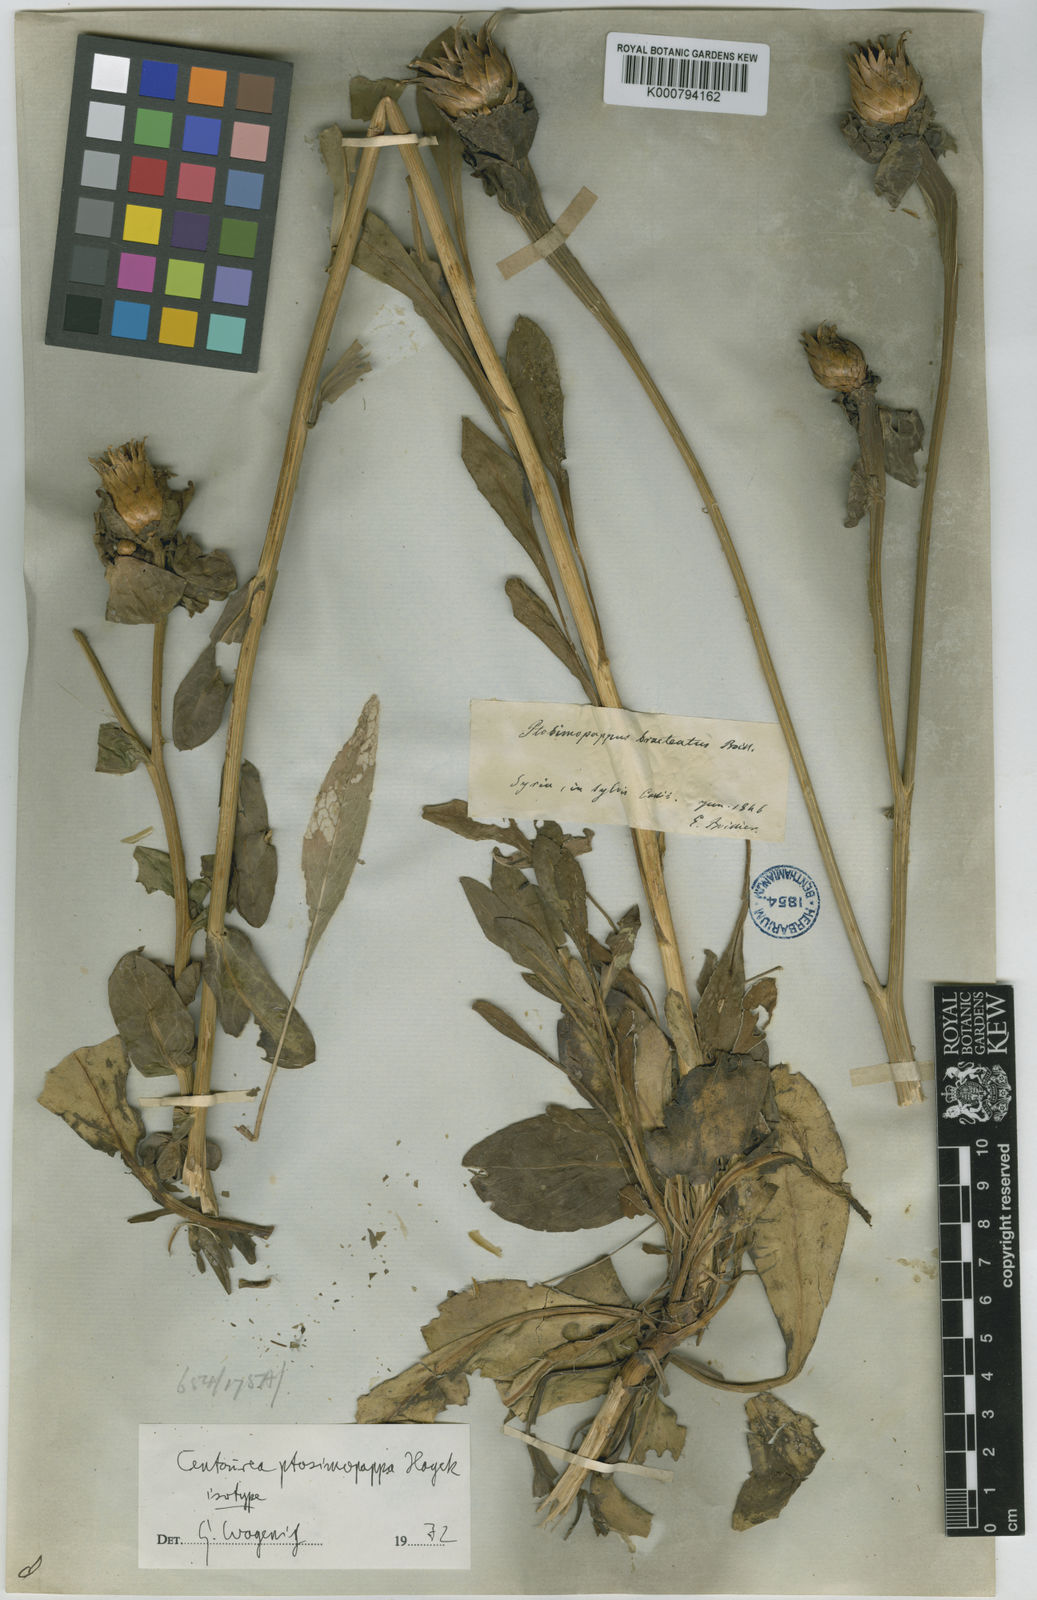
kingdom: Plantae
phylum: Tracheophyta
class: Magnoliopsida
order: Asterales
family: Asteraceae
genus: Centaurea
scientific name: Centaurea ptosimopappa
